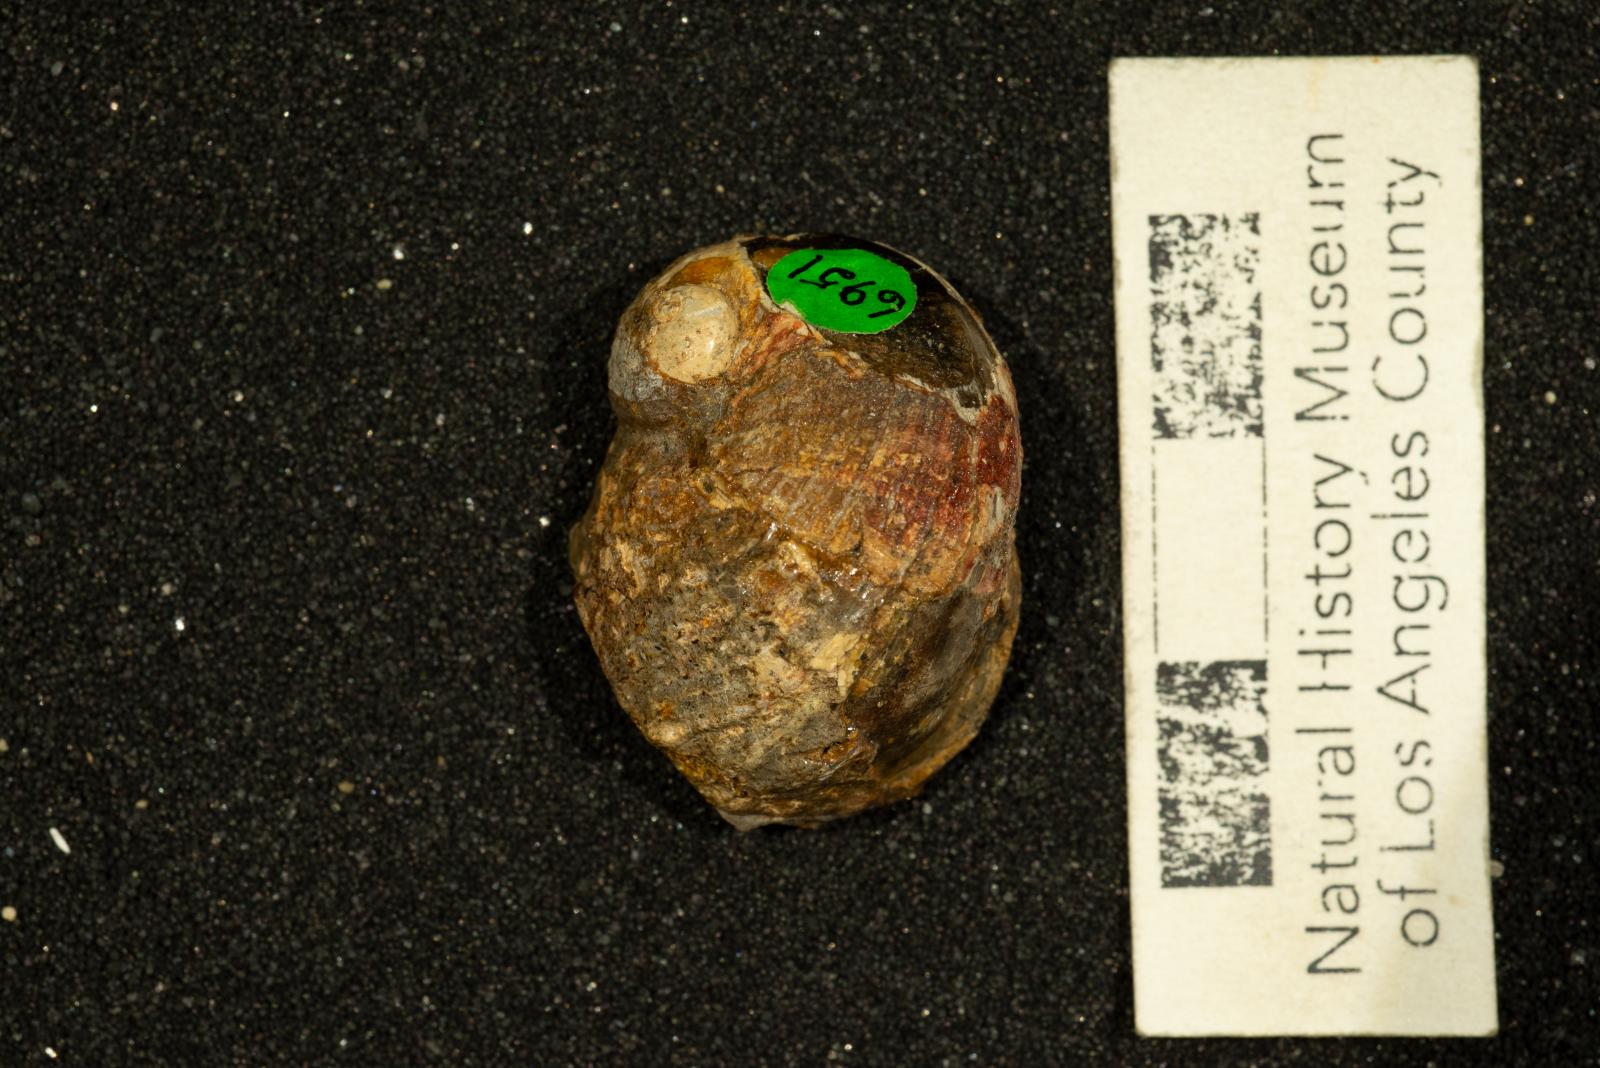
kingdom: Animalia
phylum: Mollusca
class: Gastropoda
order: Littorinimorpha
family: Calyptraeidae
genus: Lysis
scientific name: Lysis duplicosta
